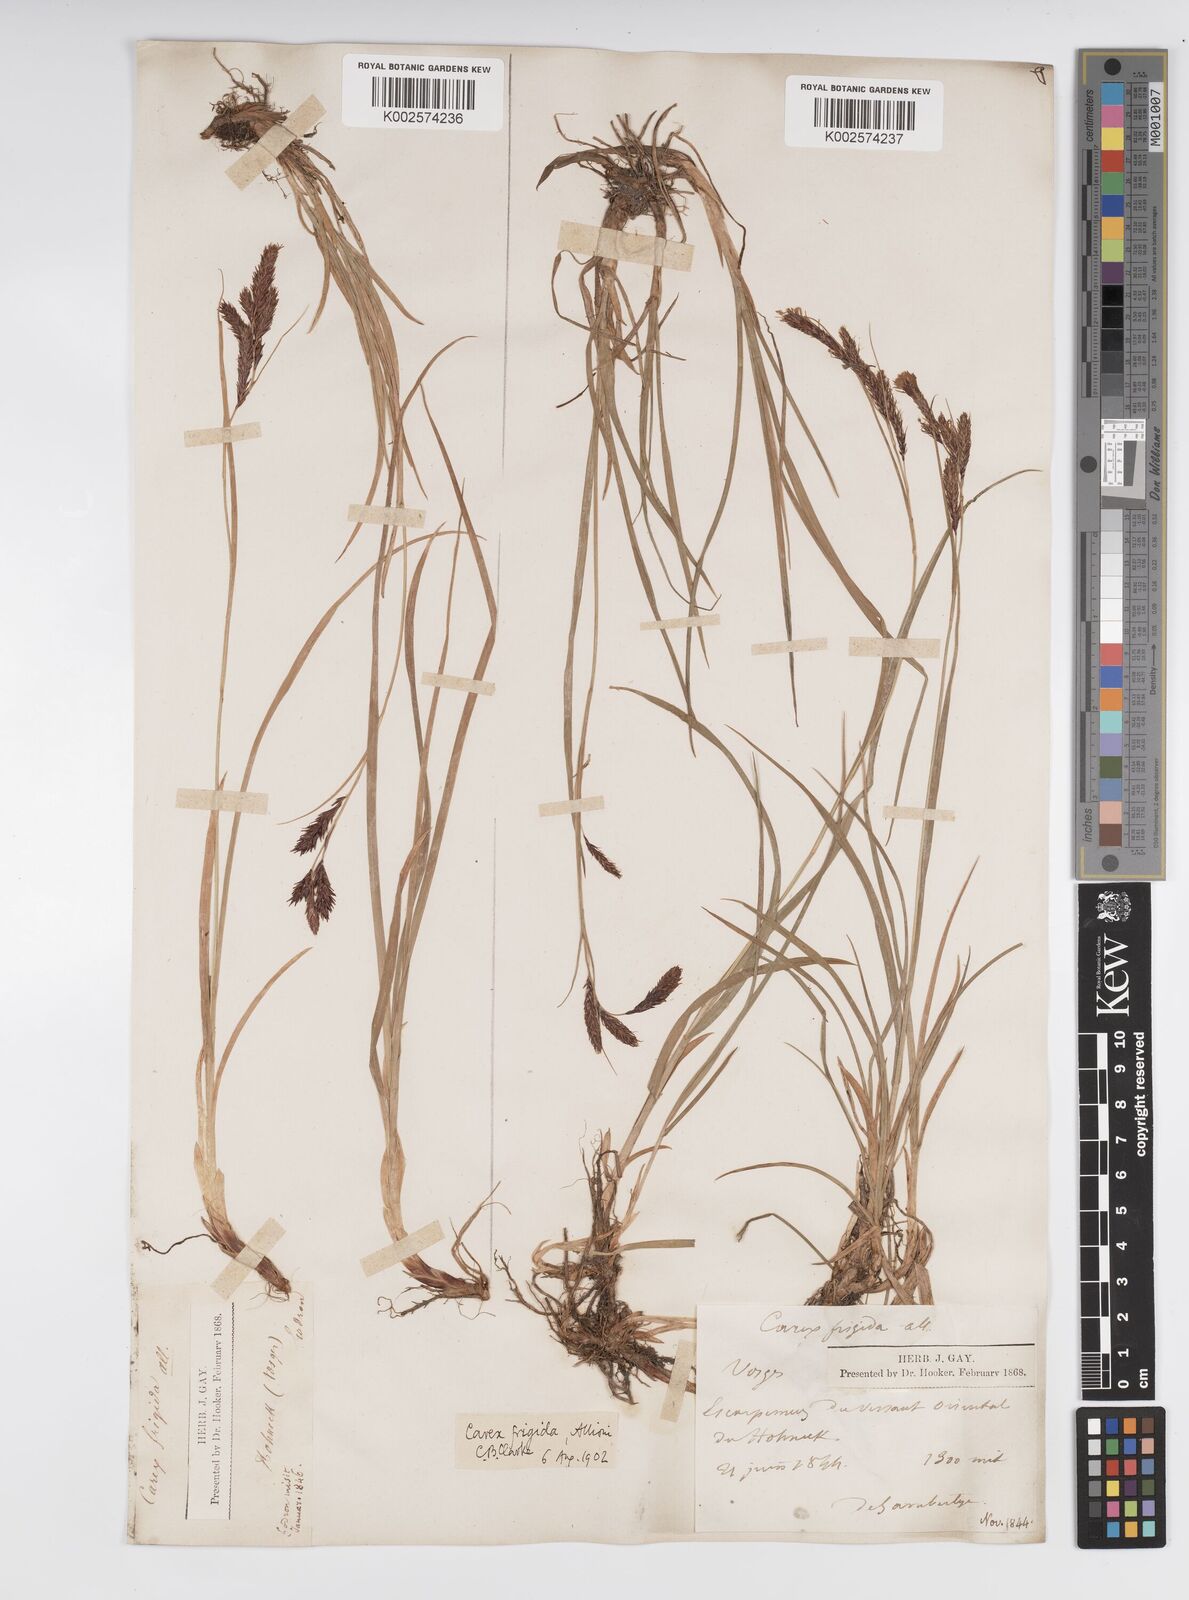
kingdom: Plantae
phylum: Tracheophyta
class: Liliopsida
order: Poales
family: Cyperaceae
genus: Carex
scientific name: Carex frigida
